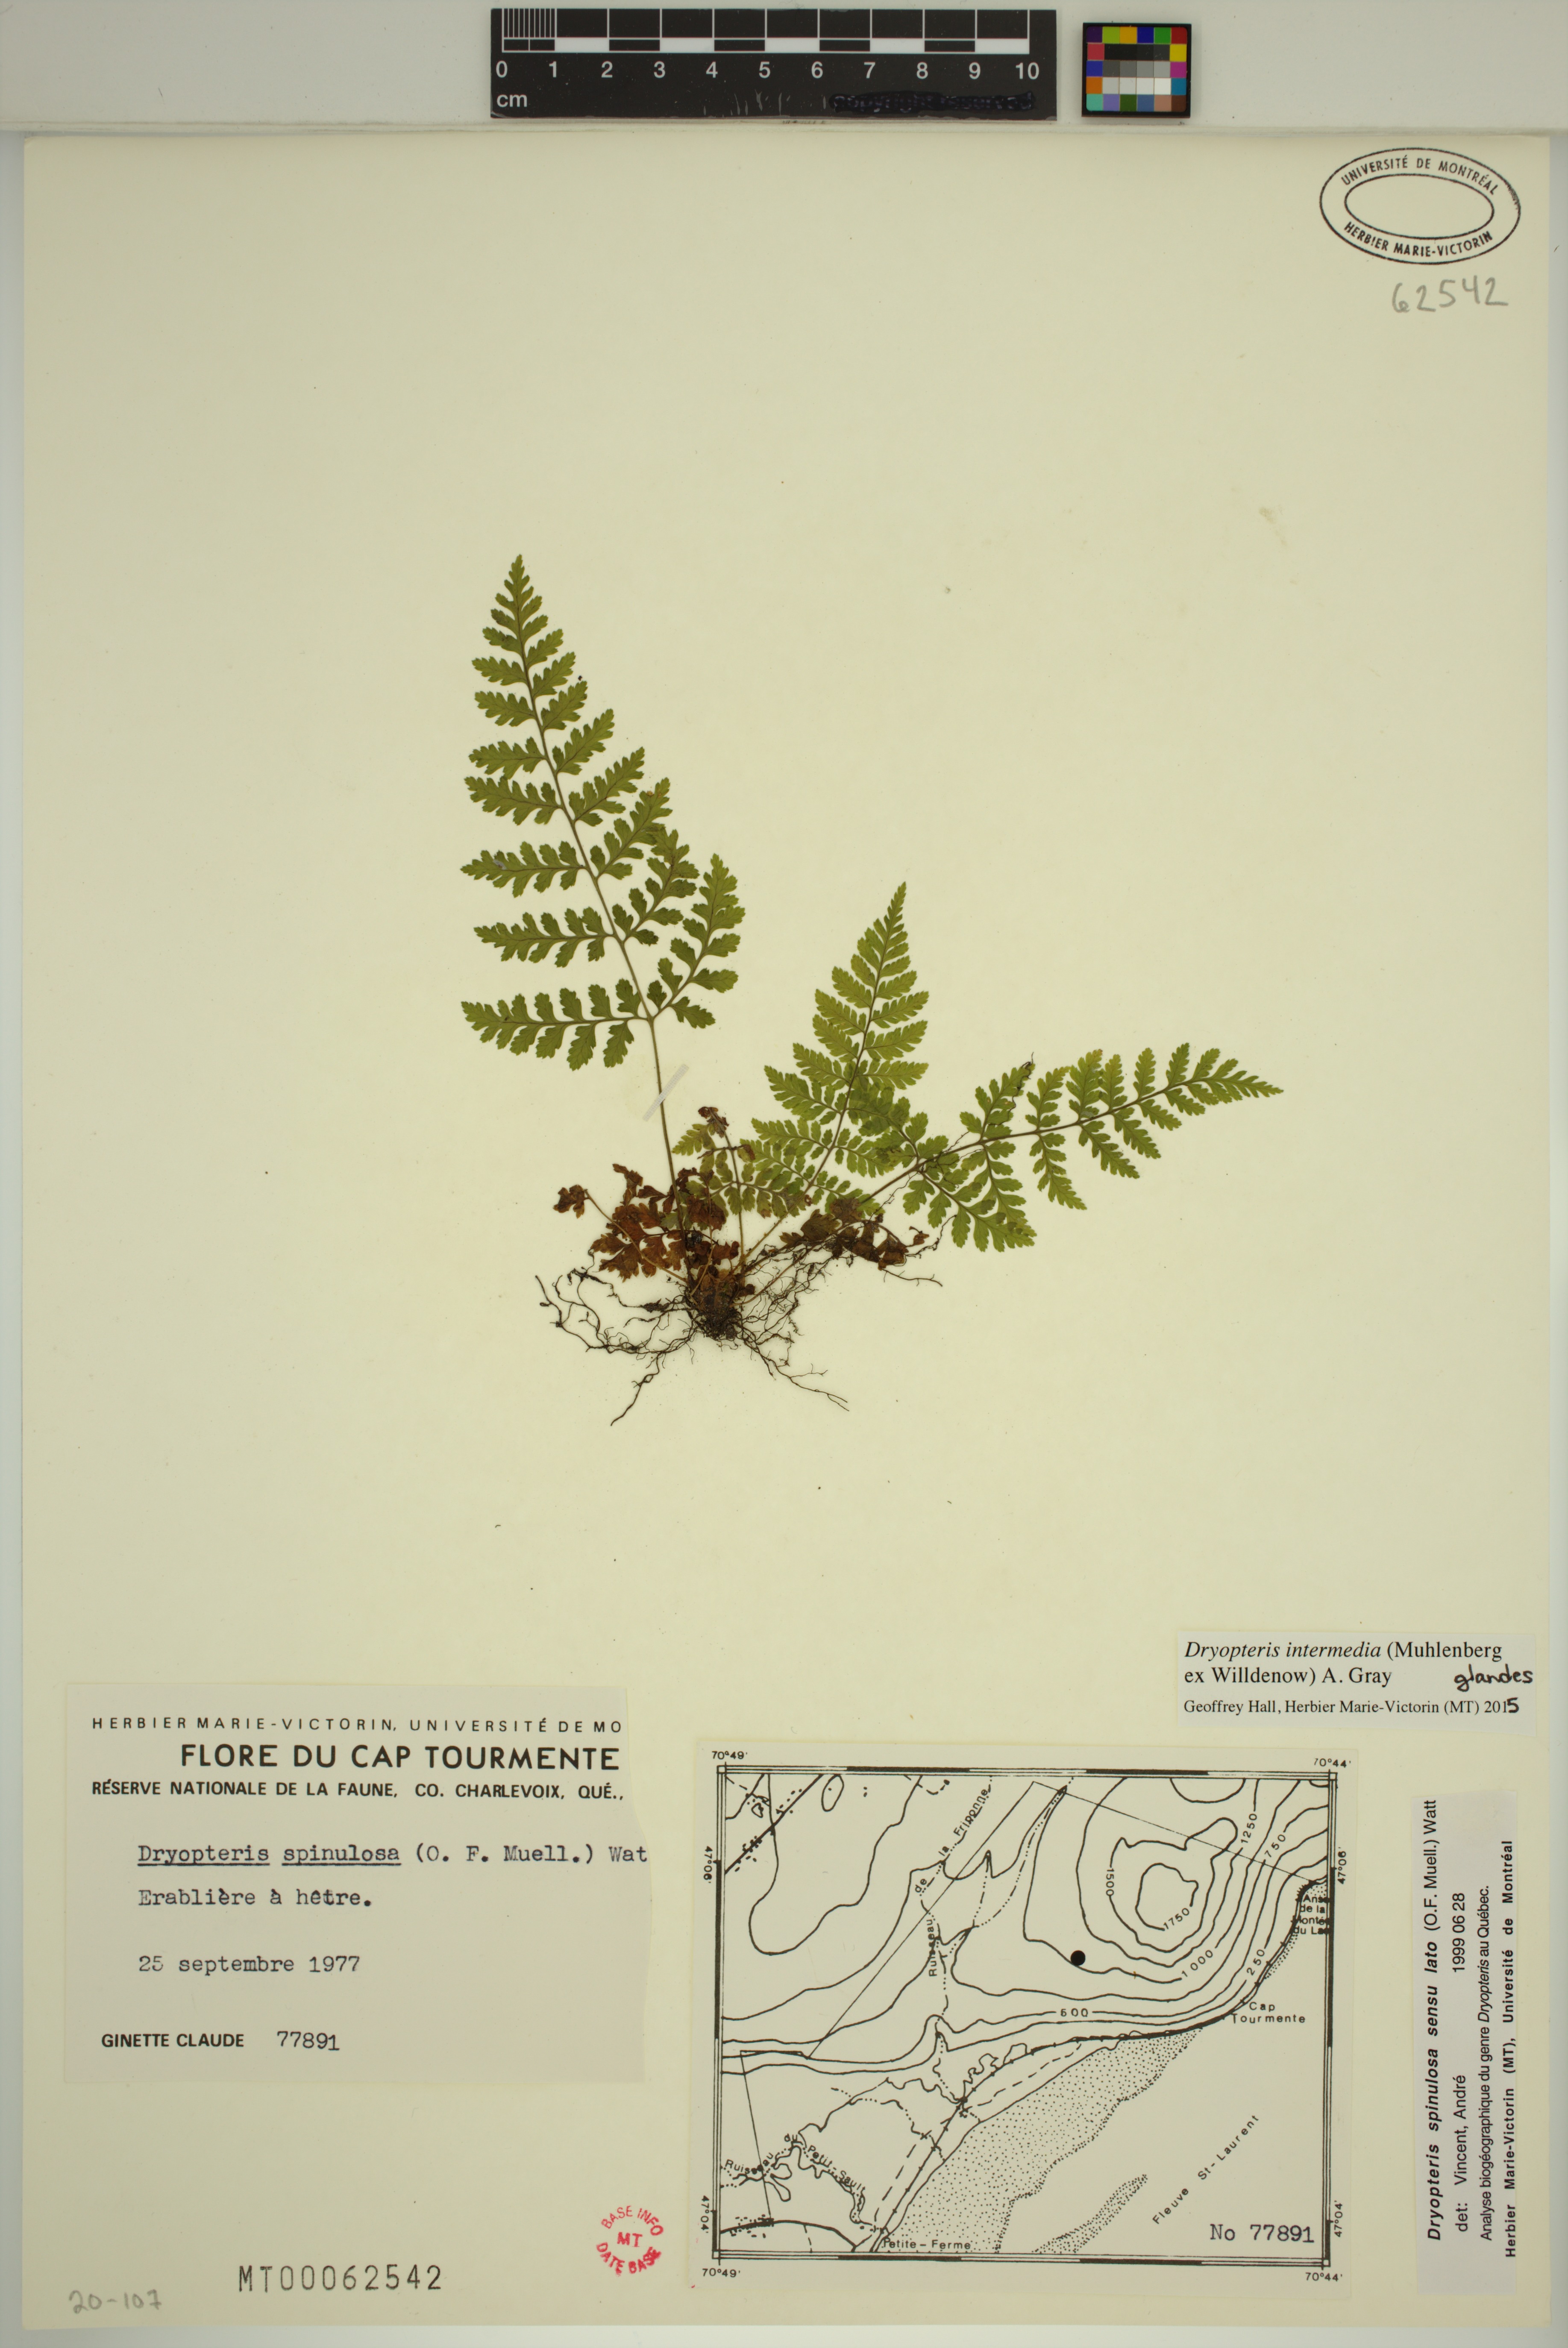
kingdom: Plantae
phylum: Tracheophyta
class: Polypodiopsida
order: Polypodiales
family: Dryopteridaceae
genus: Dryopteris
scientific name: Dryopteris intermedia
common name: Evergreen wood fern
